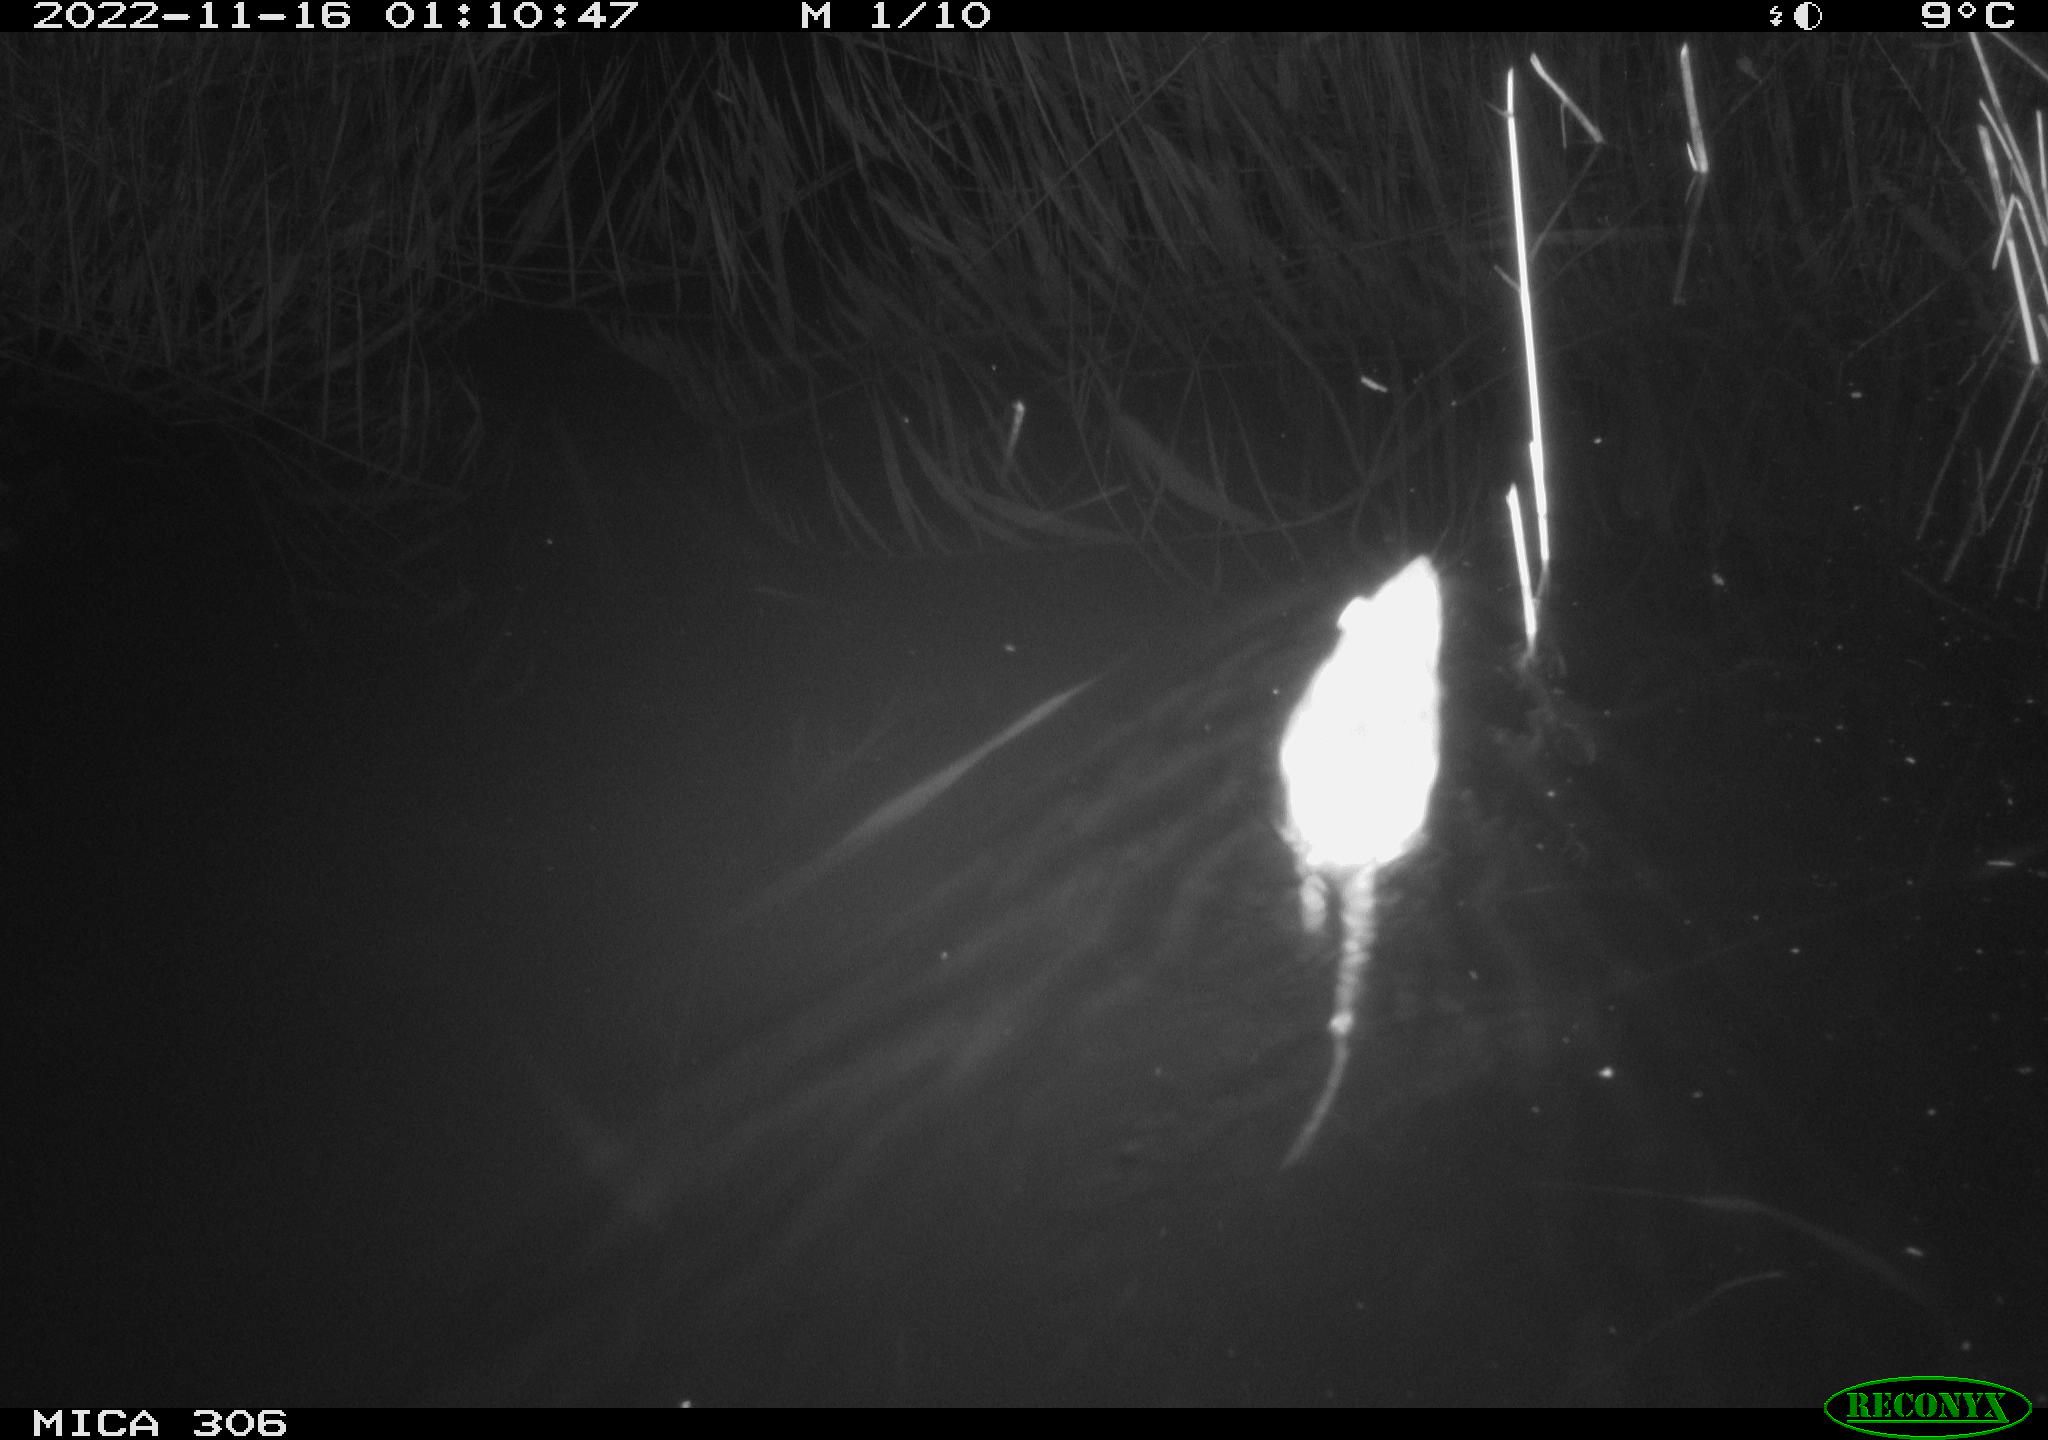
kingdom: Animalia
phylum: Chordata
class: Mammalia
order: Rodentia
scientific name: Rodentia
